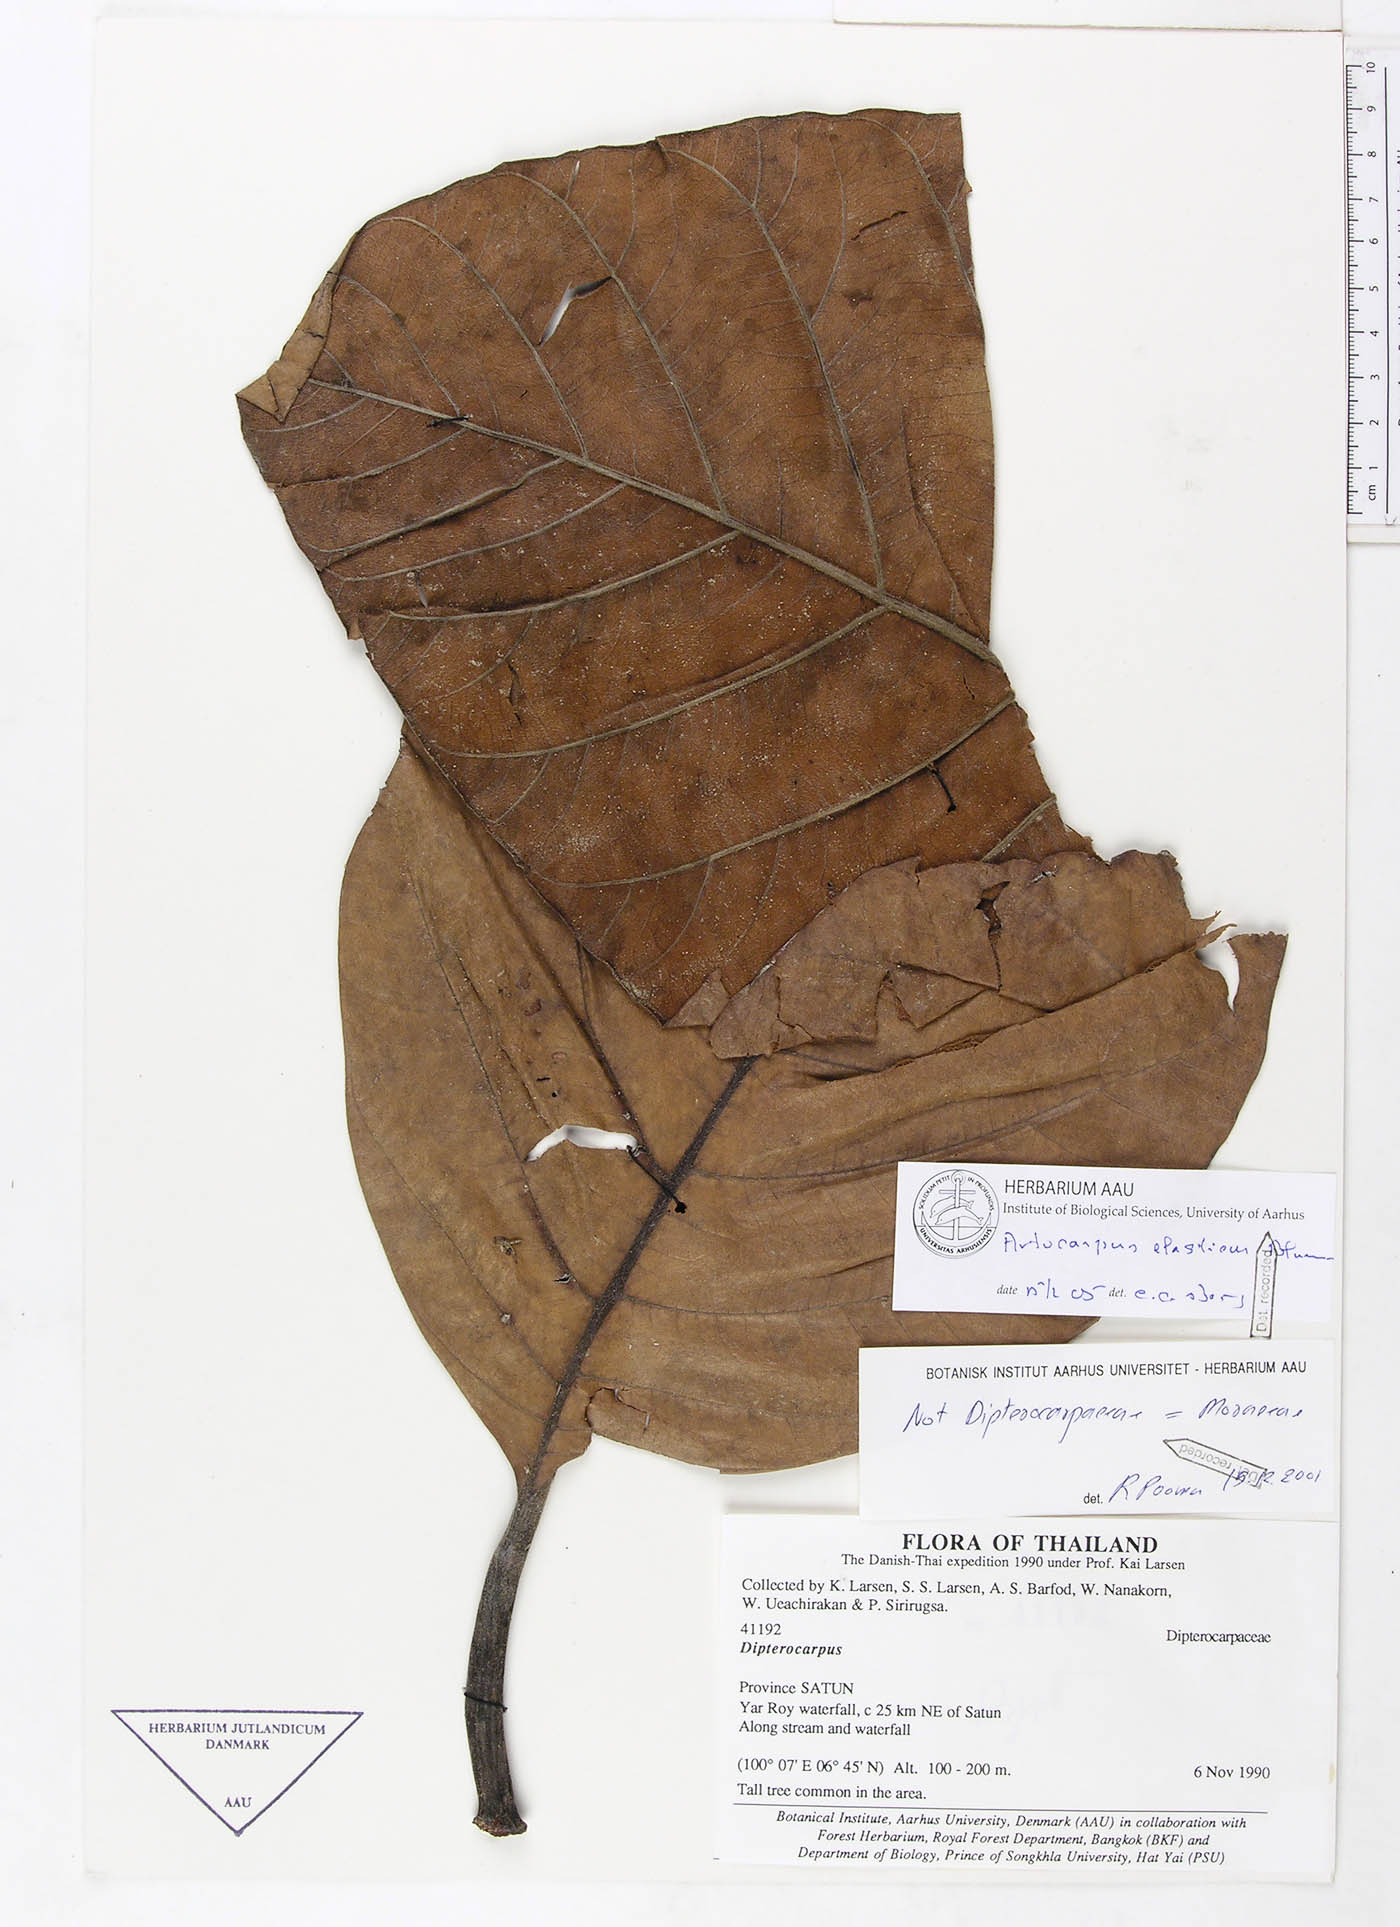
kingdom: Plantae
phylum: Tracheophyta
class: Magnoliopsida
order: Rosales
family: Moraceae
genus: Artocarpus
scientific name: Artocarpus elasticus
